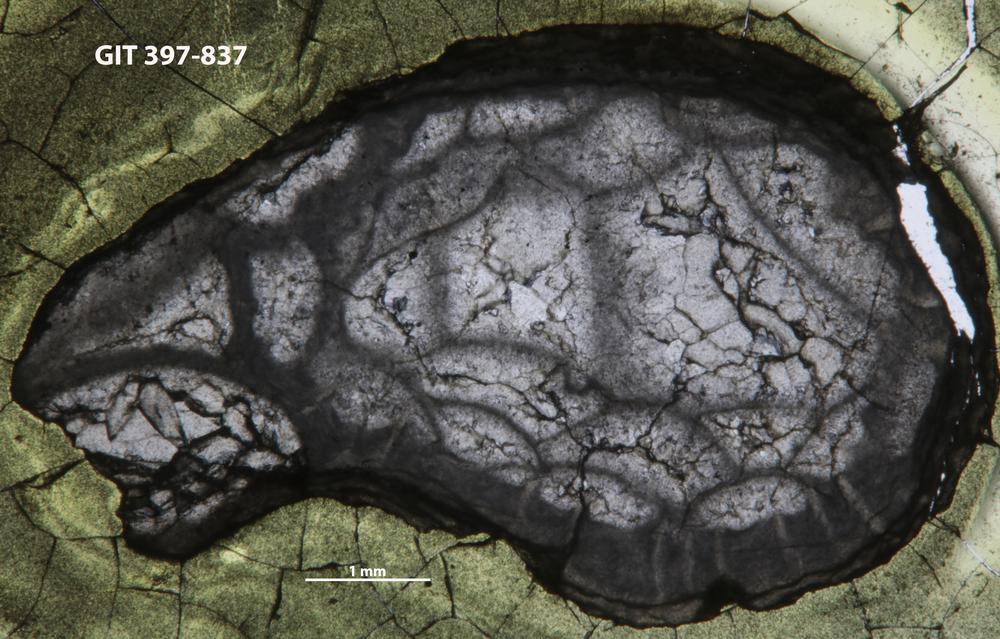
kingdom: Animalia
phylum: Cnidaria
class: Anthozoa
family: Cystiphyllidae
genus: Microplasma
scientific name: Microplasma
